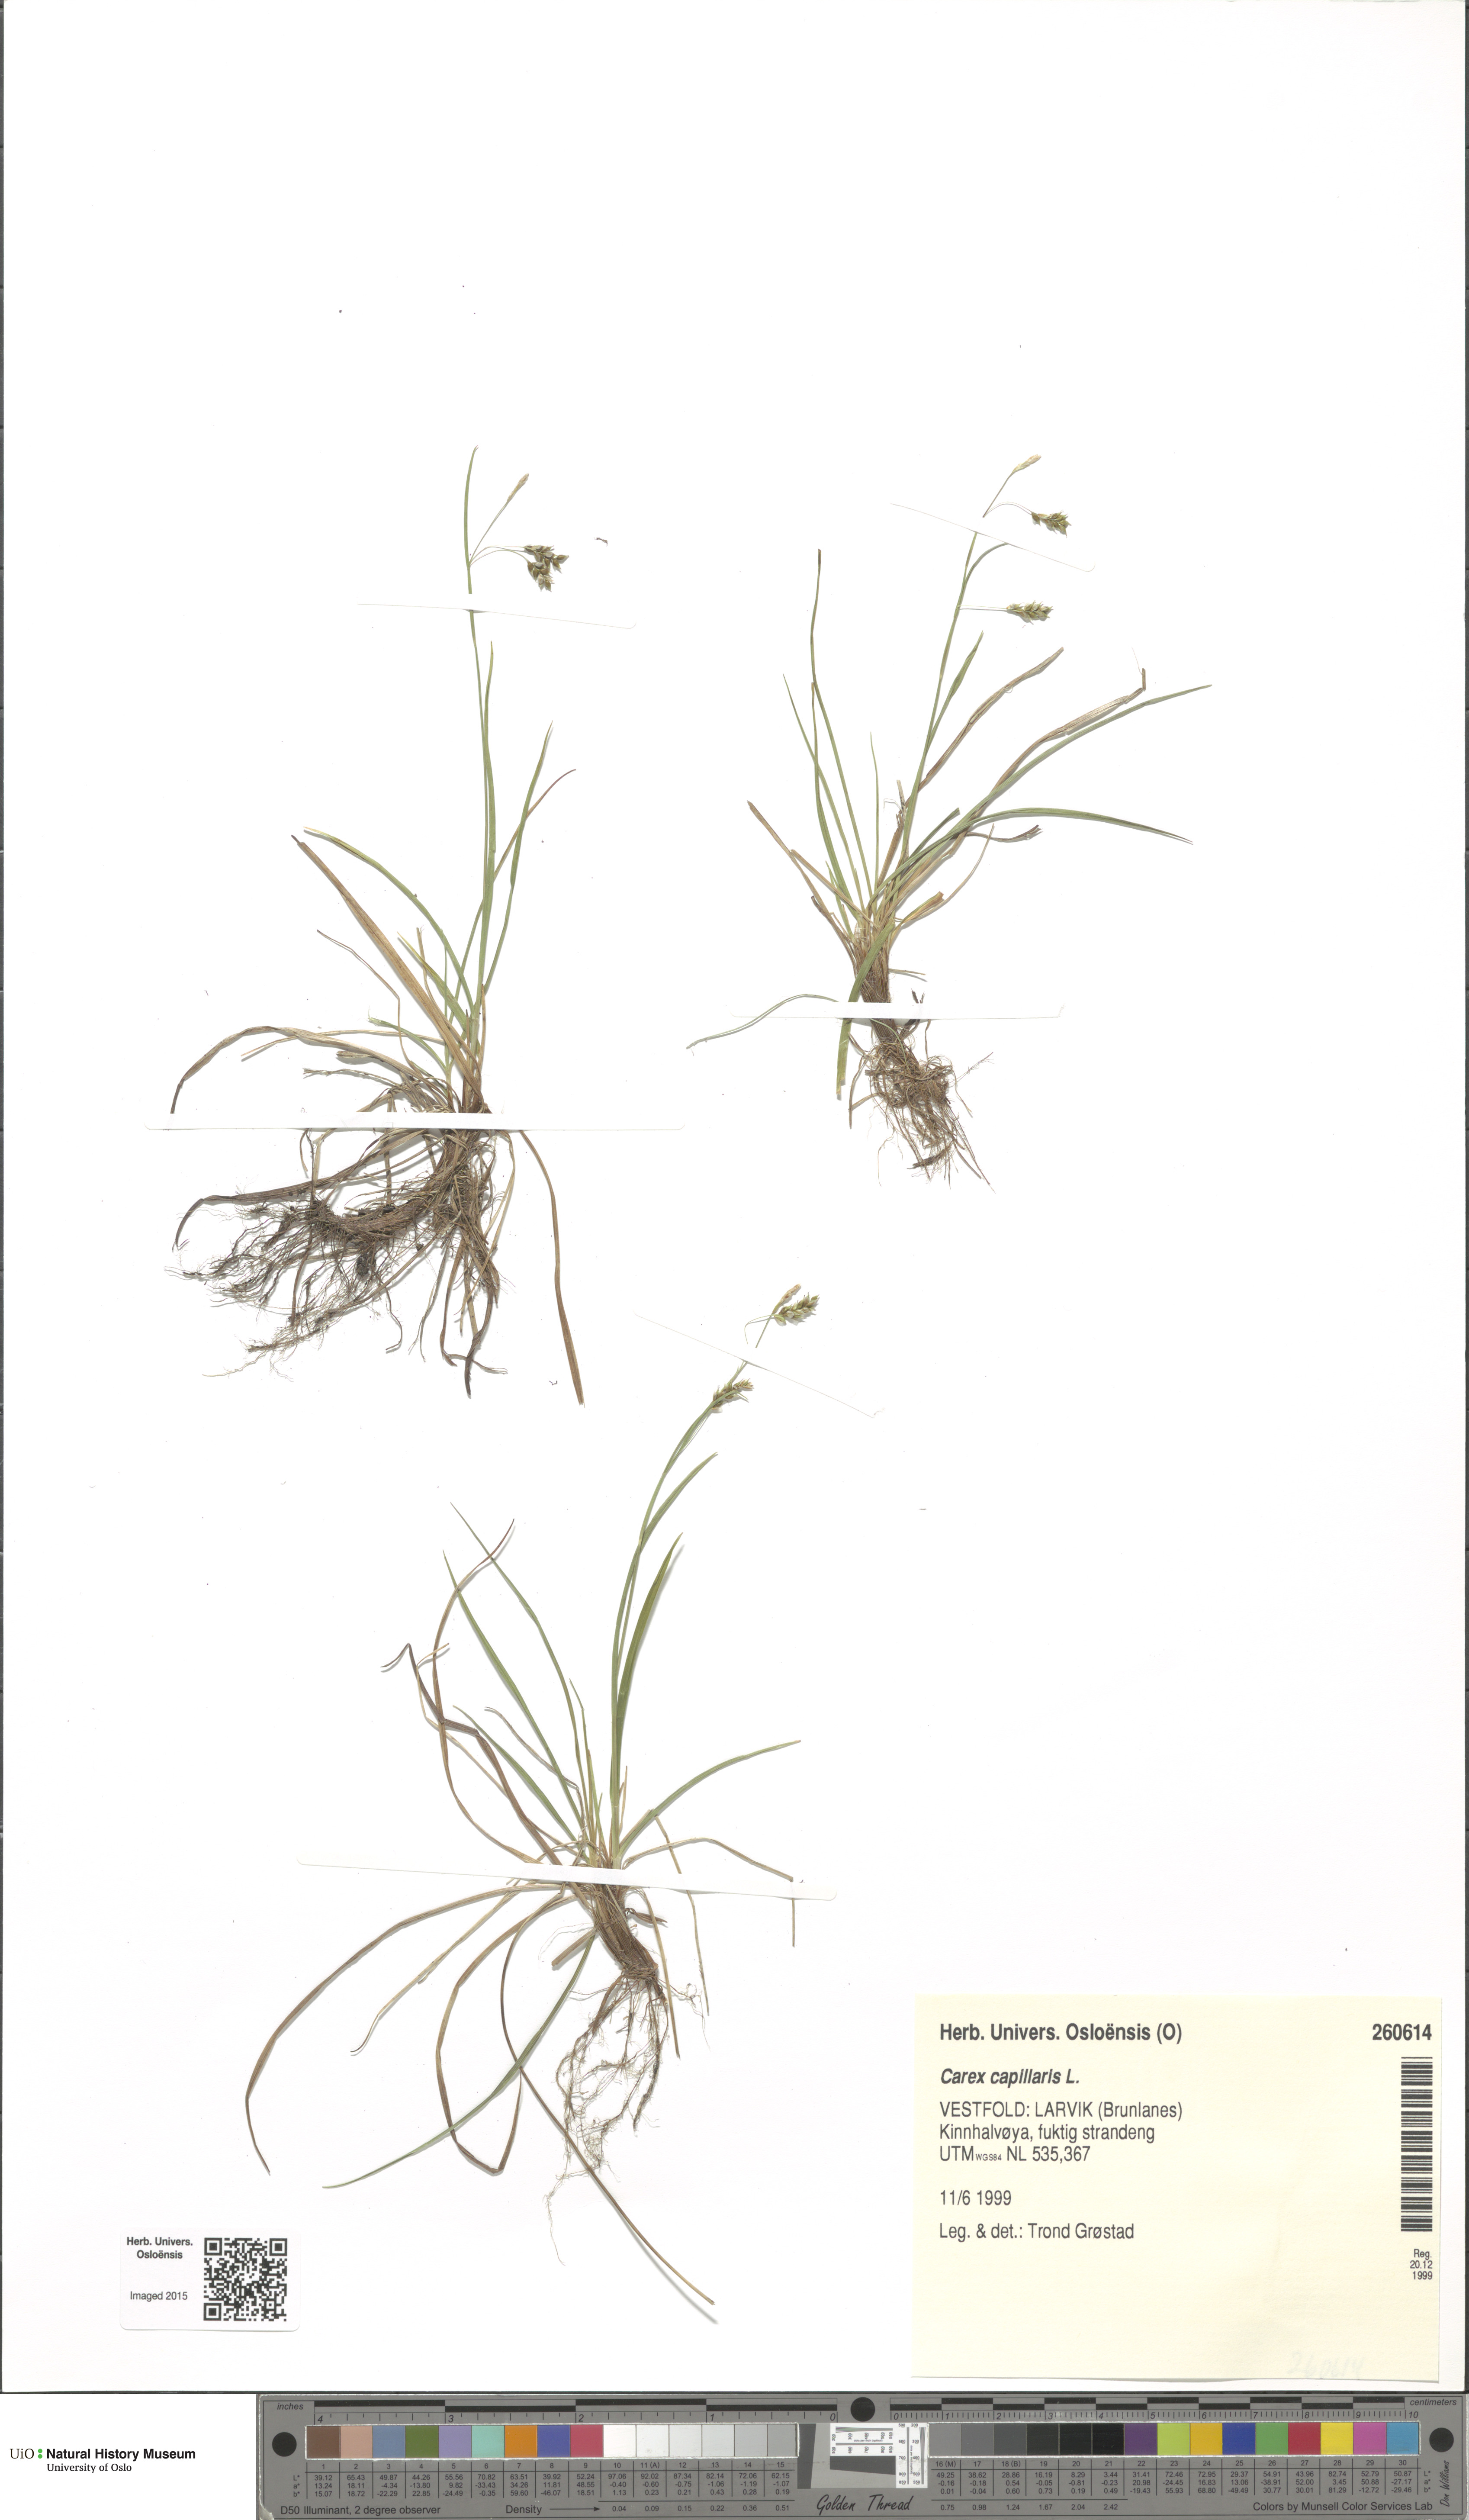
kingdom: Plantae
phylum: Tracheophyta
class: Liliopsida
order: Poales
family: Cyperaceae
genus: Carex
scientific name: Carex capillaris
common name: Hair sedge
